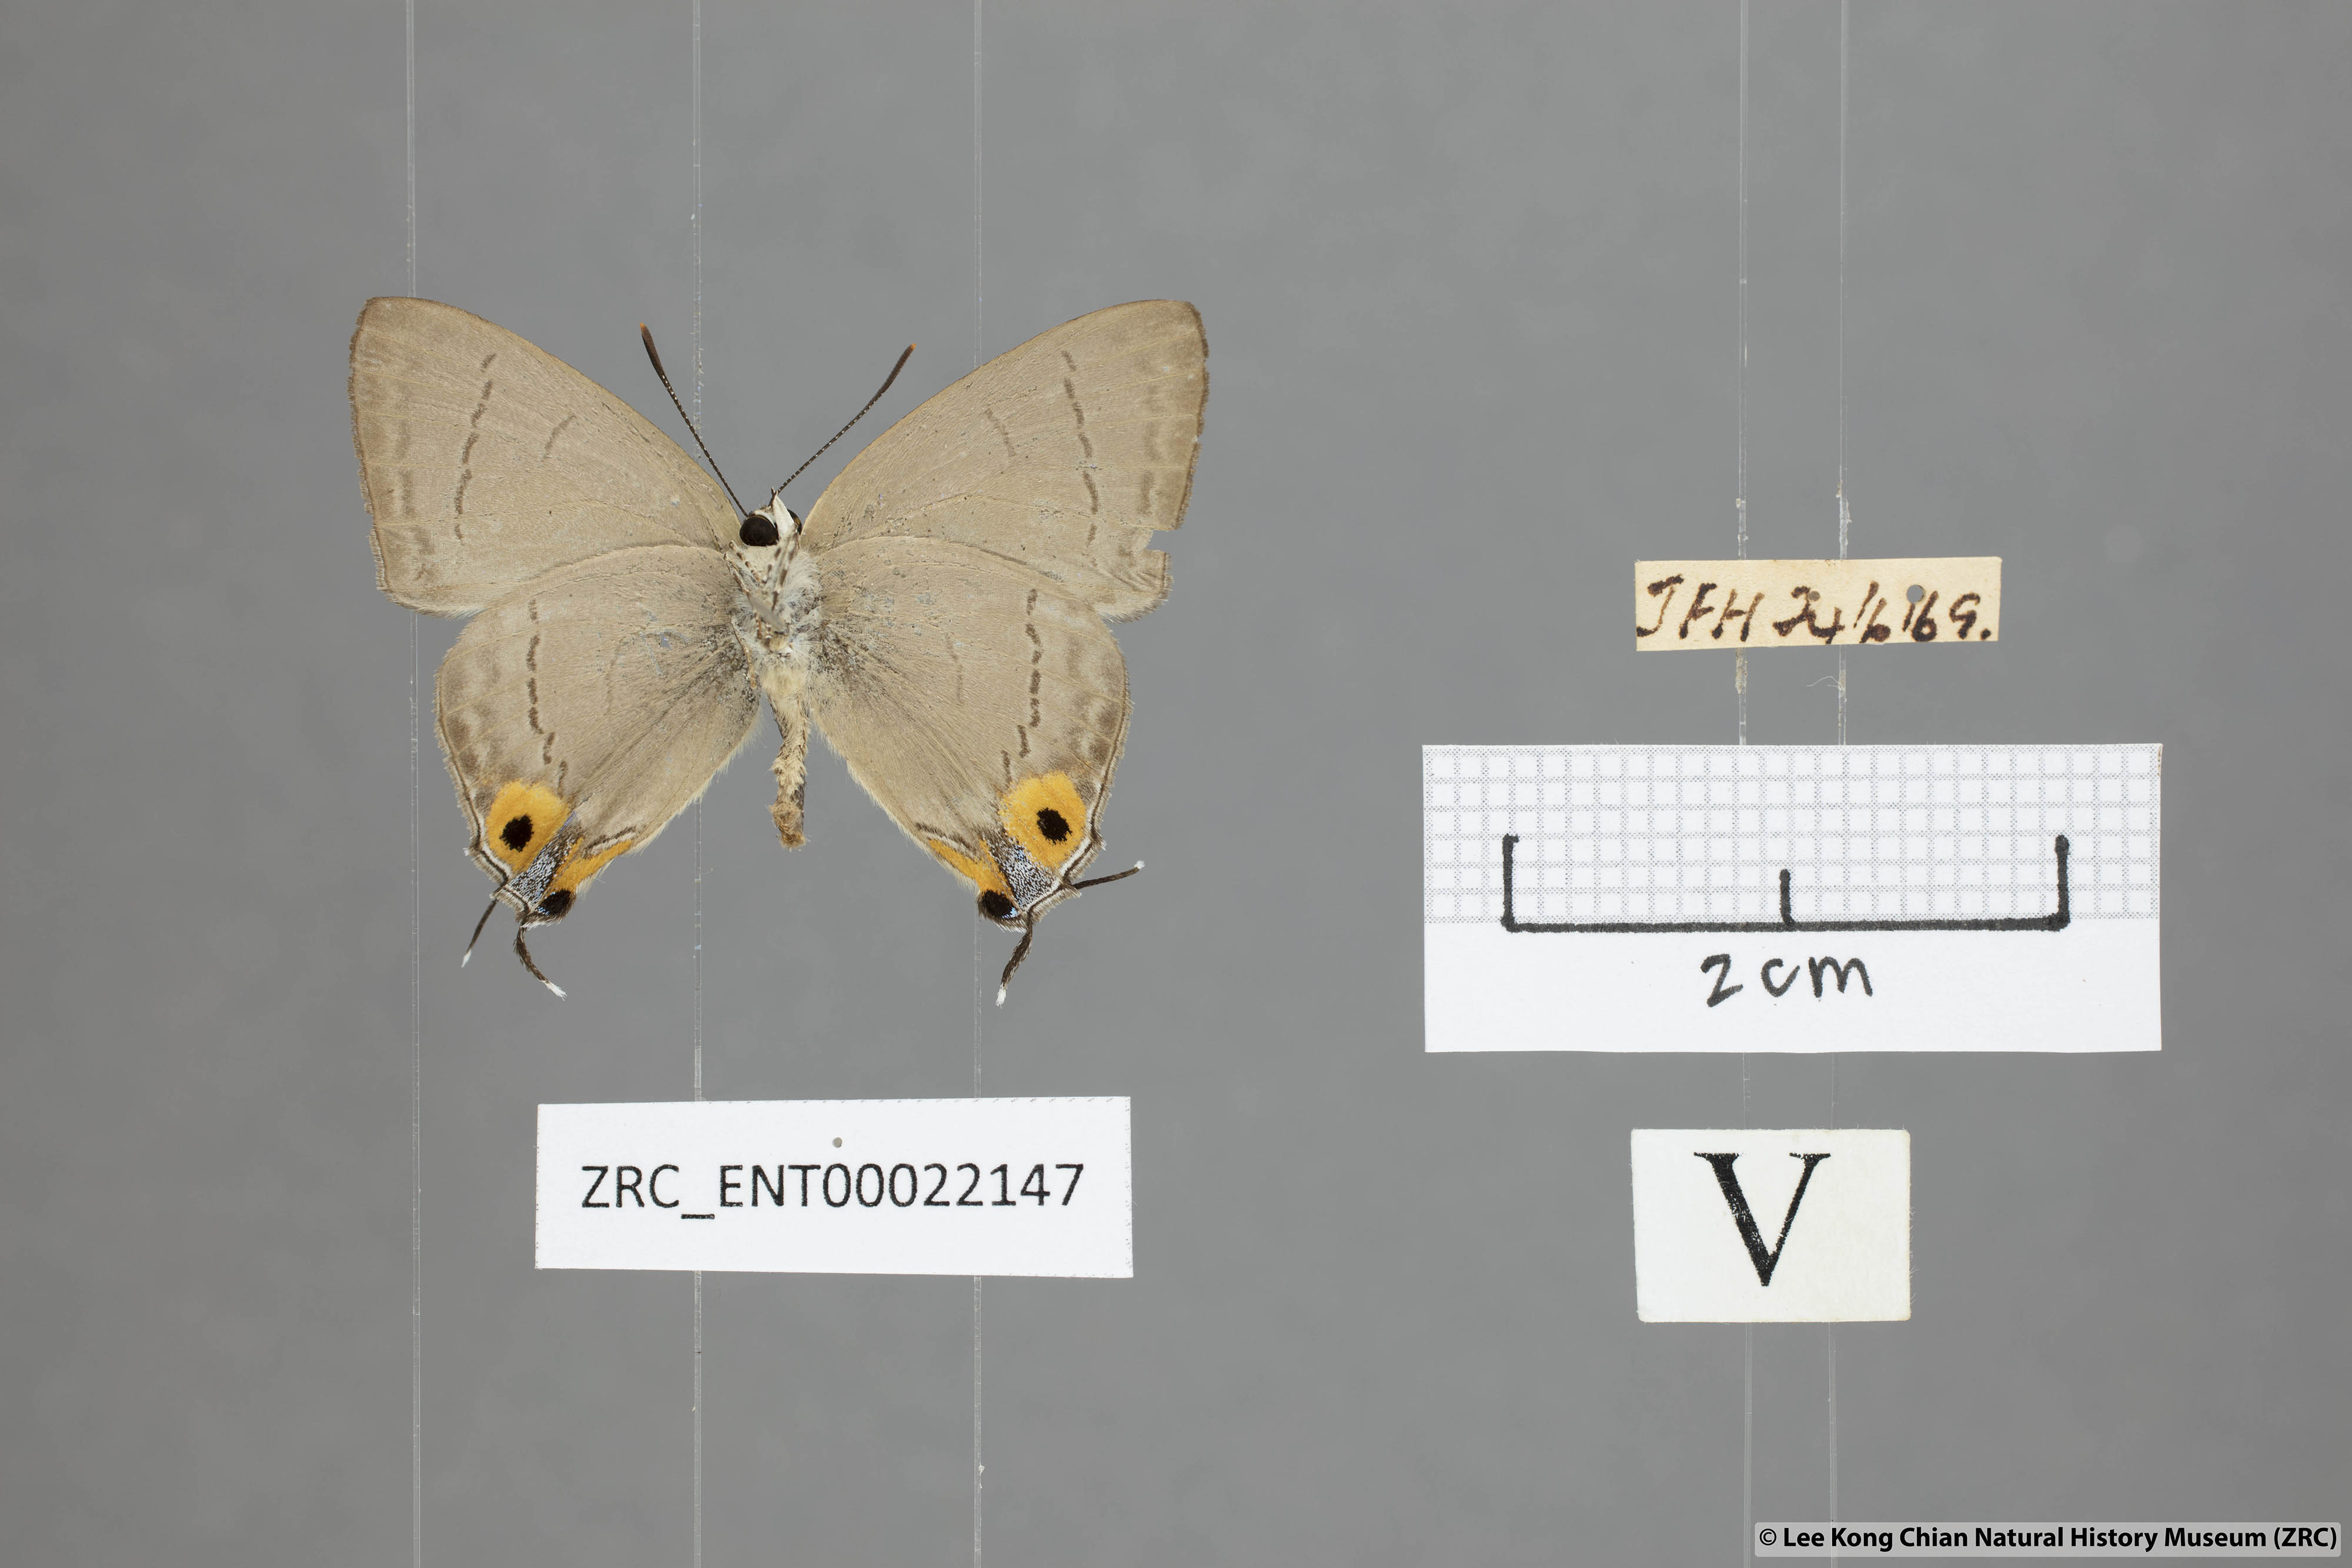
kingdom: Animalia
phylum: Arthropoda
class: Insecta
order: Lepidoptera
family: Lycaenidae
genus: Tajuria
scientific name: Tajuria albiplaga
